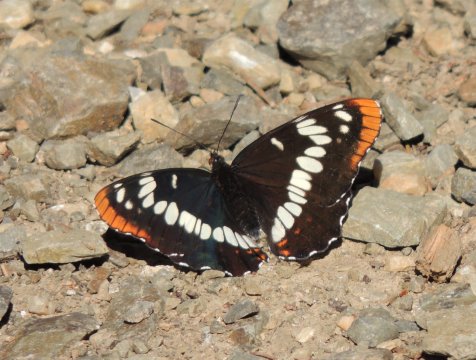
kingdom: Animalia
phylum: Arthropoda
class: Insecta
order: Lepidoptera
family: Nymphalidae
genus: Limenitis
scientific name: Limenitis lorquini
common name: Lorquin's Admiral
